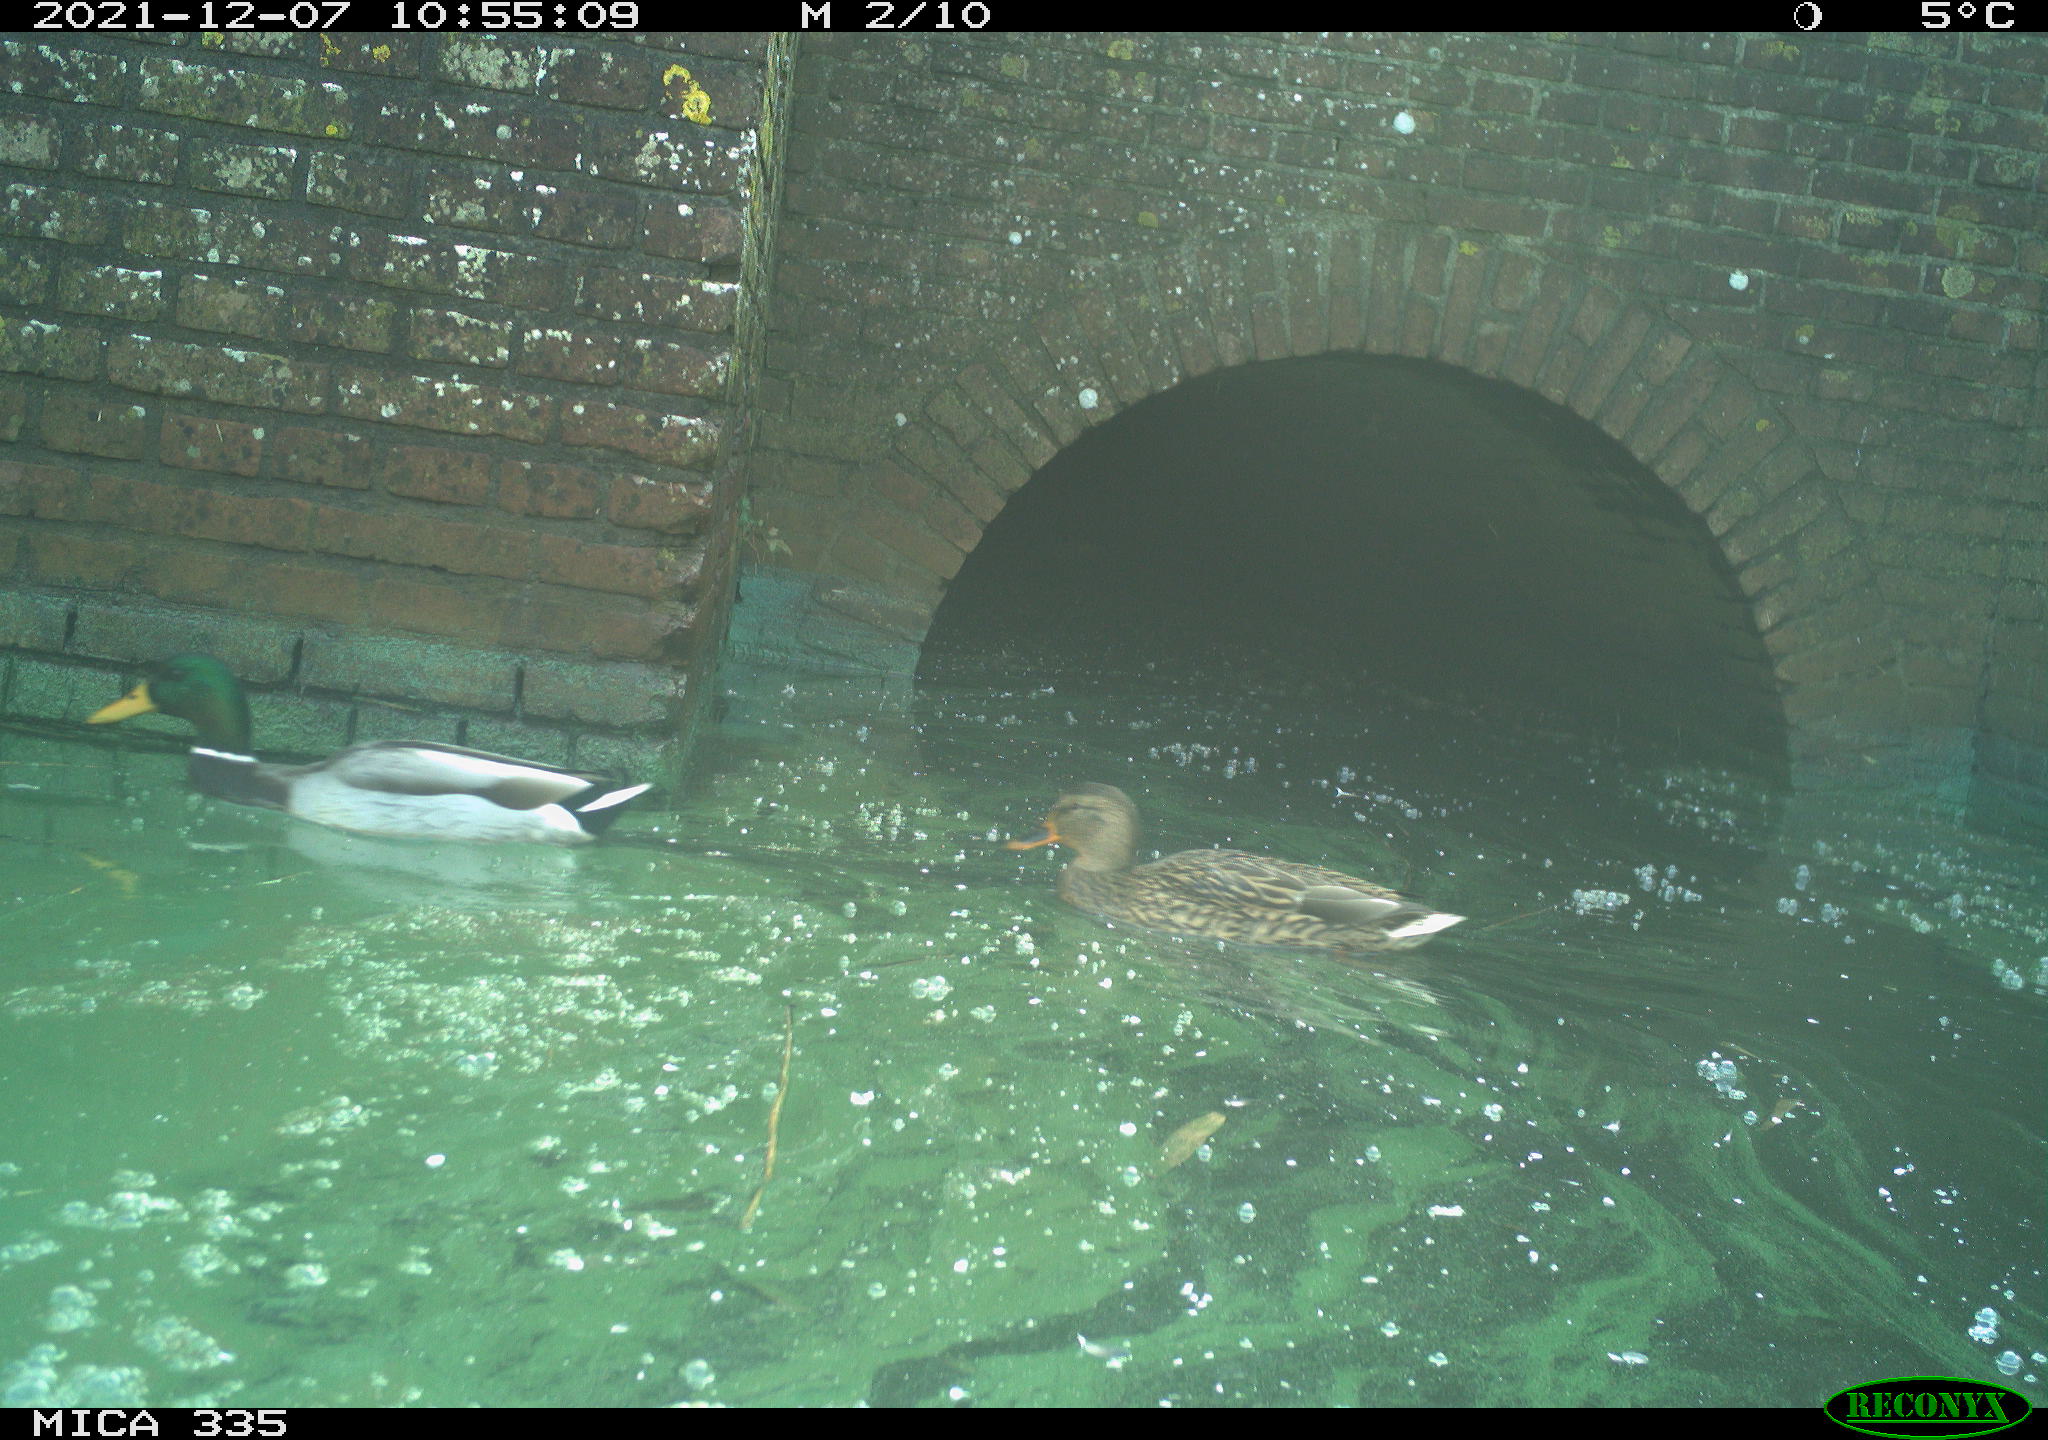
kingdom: Animalia
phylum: Chordata
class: Aves
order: Anseriformes
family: Anatidae
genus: Anas
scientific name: Anas platyrhynchos
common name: Mallard
